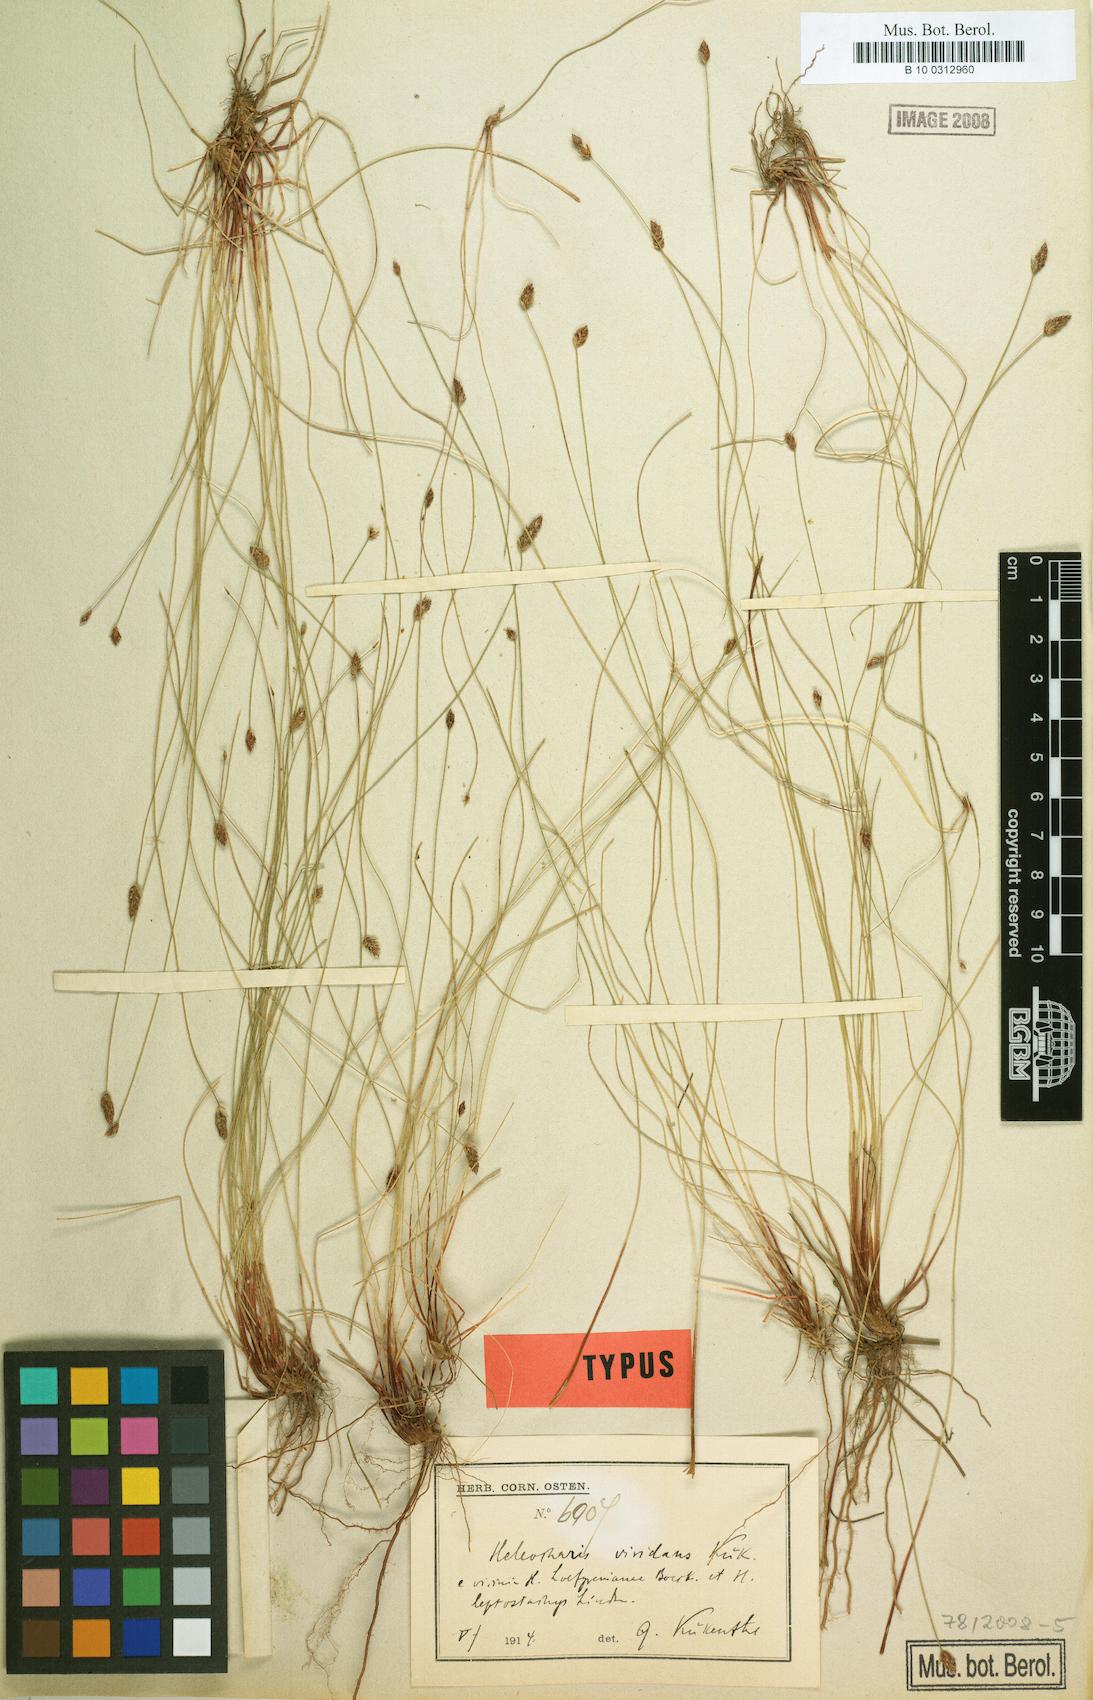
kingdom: Plantae
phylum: Tracheophyta
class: Liliopsida
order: Poales
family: Cyperaceae
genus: Eleocharis
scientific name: Eleocharis viridans
